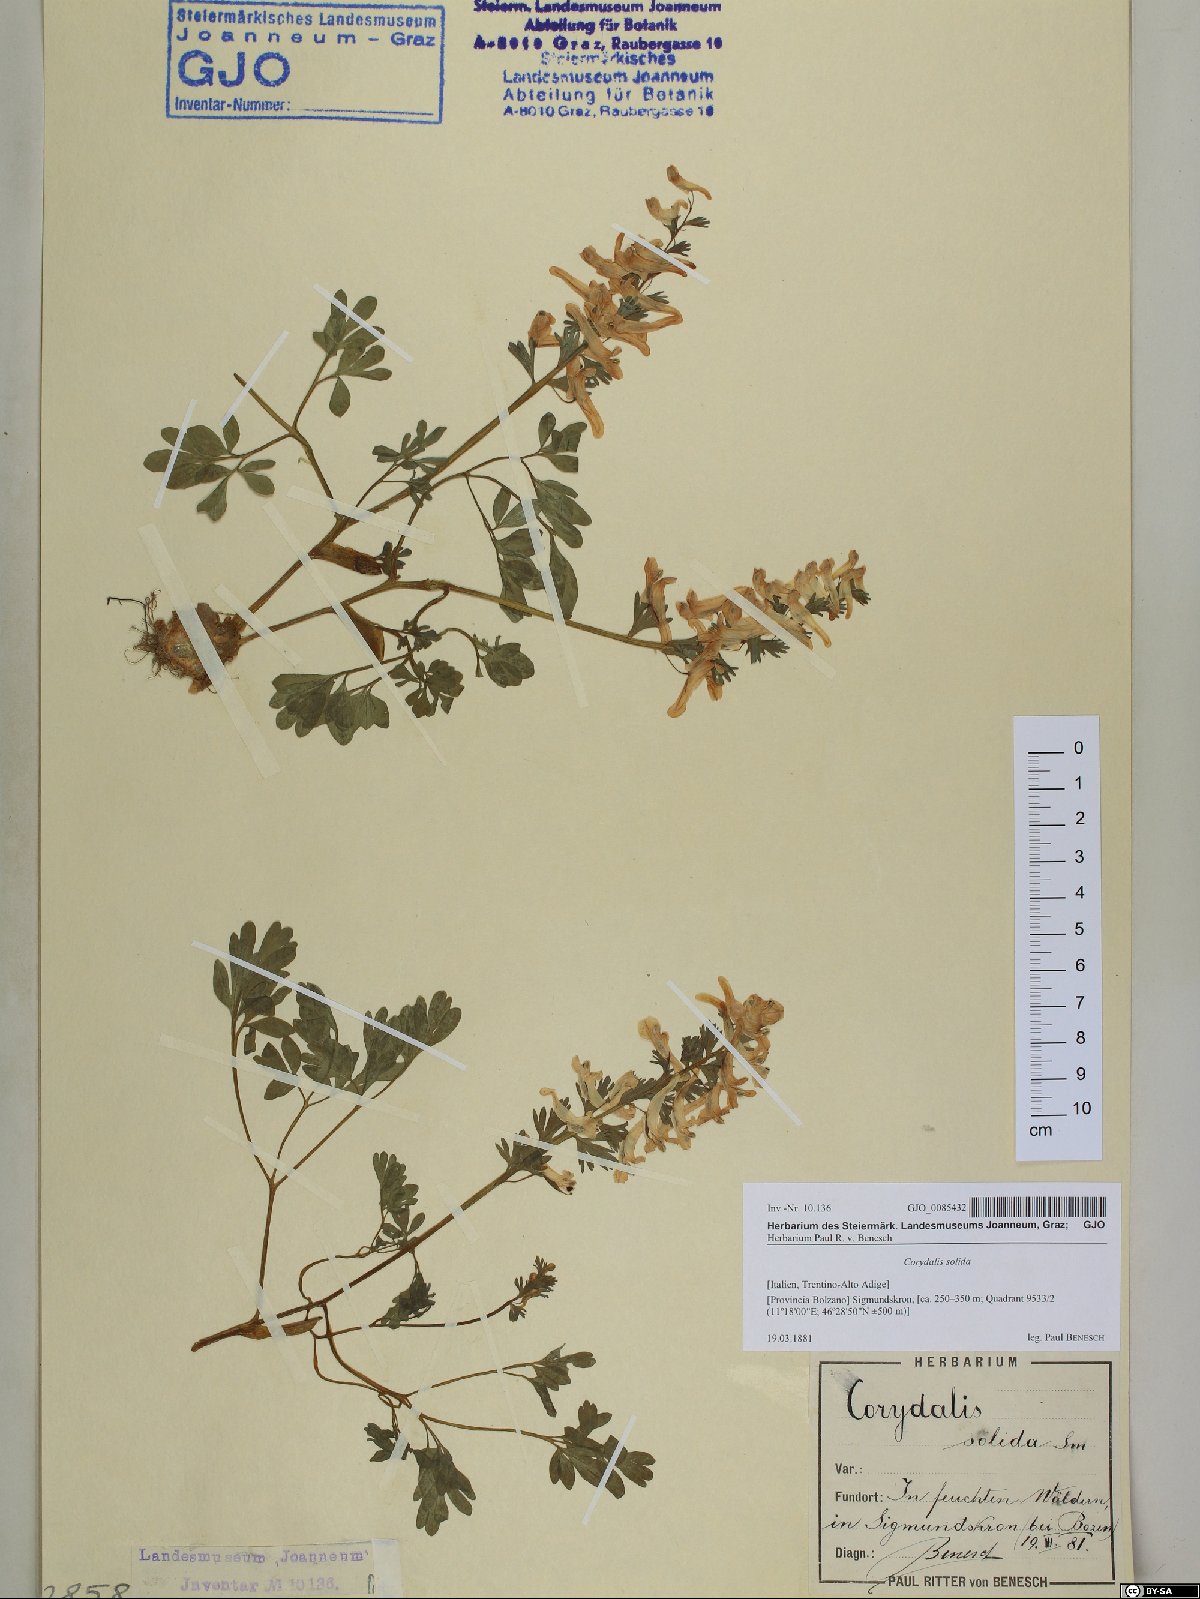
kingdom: Plantae
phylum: Tracheophyta
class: Magnoliopsida
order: Ranunculales
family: Papaveraceae
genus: Corydalis
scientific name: Corydalis solida
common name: Bird-in-a-bush
